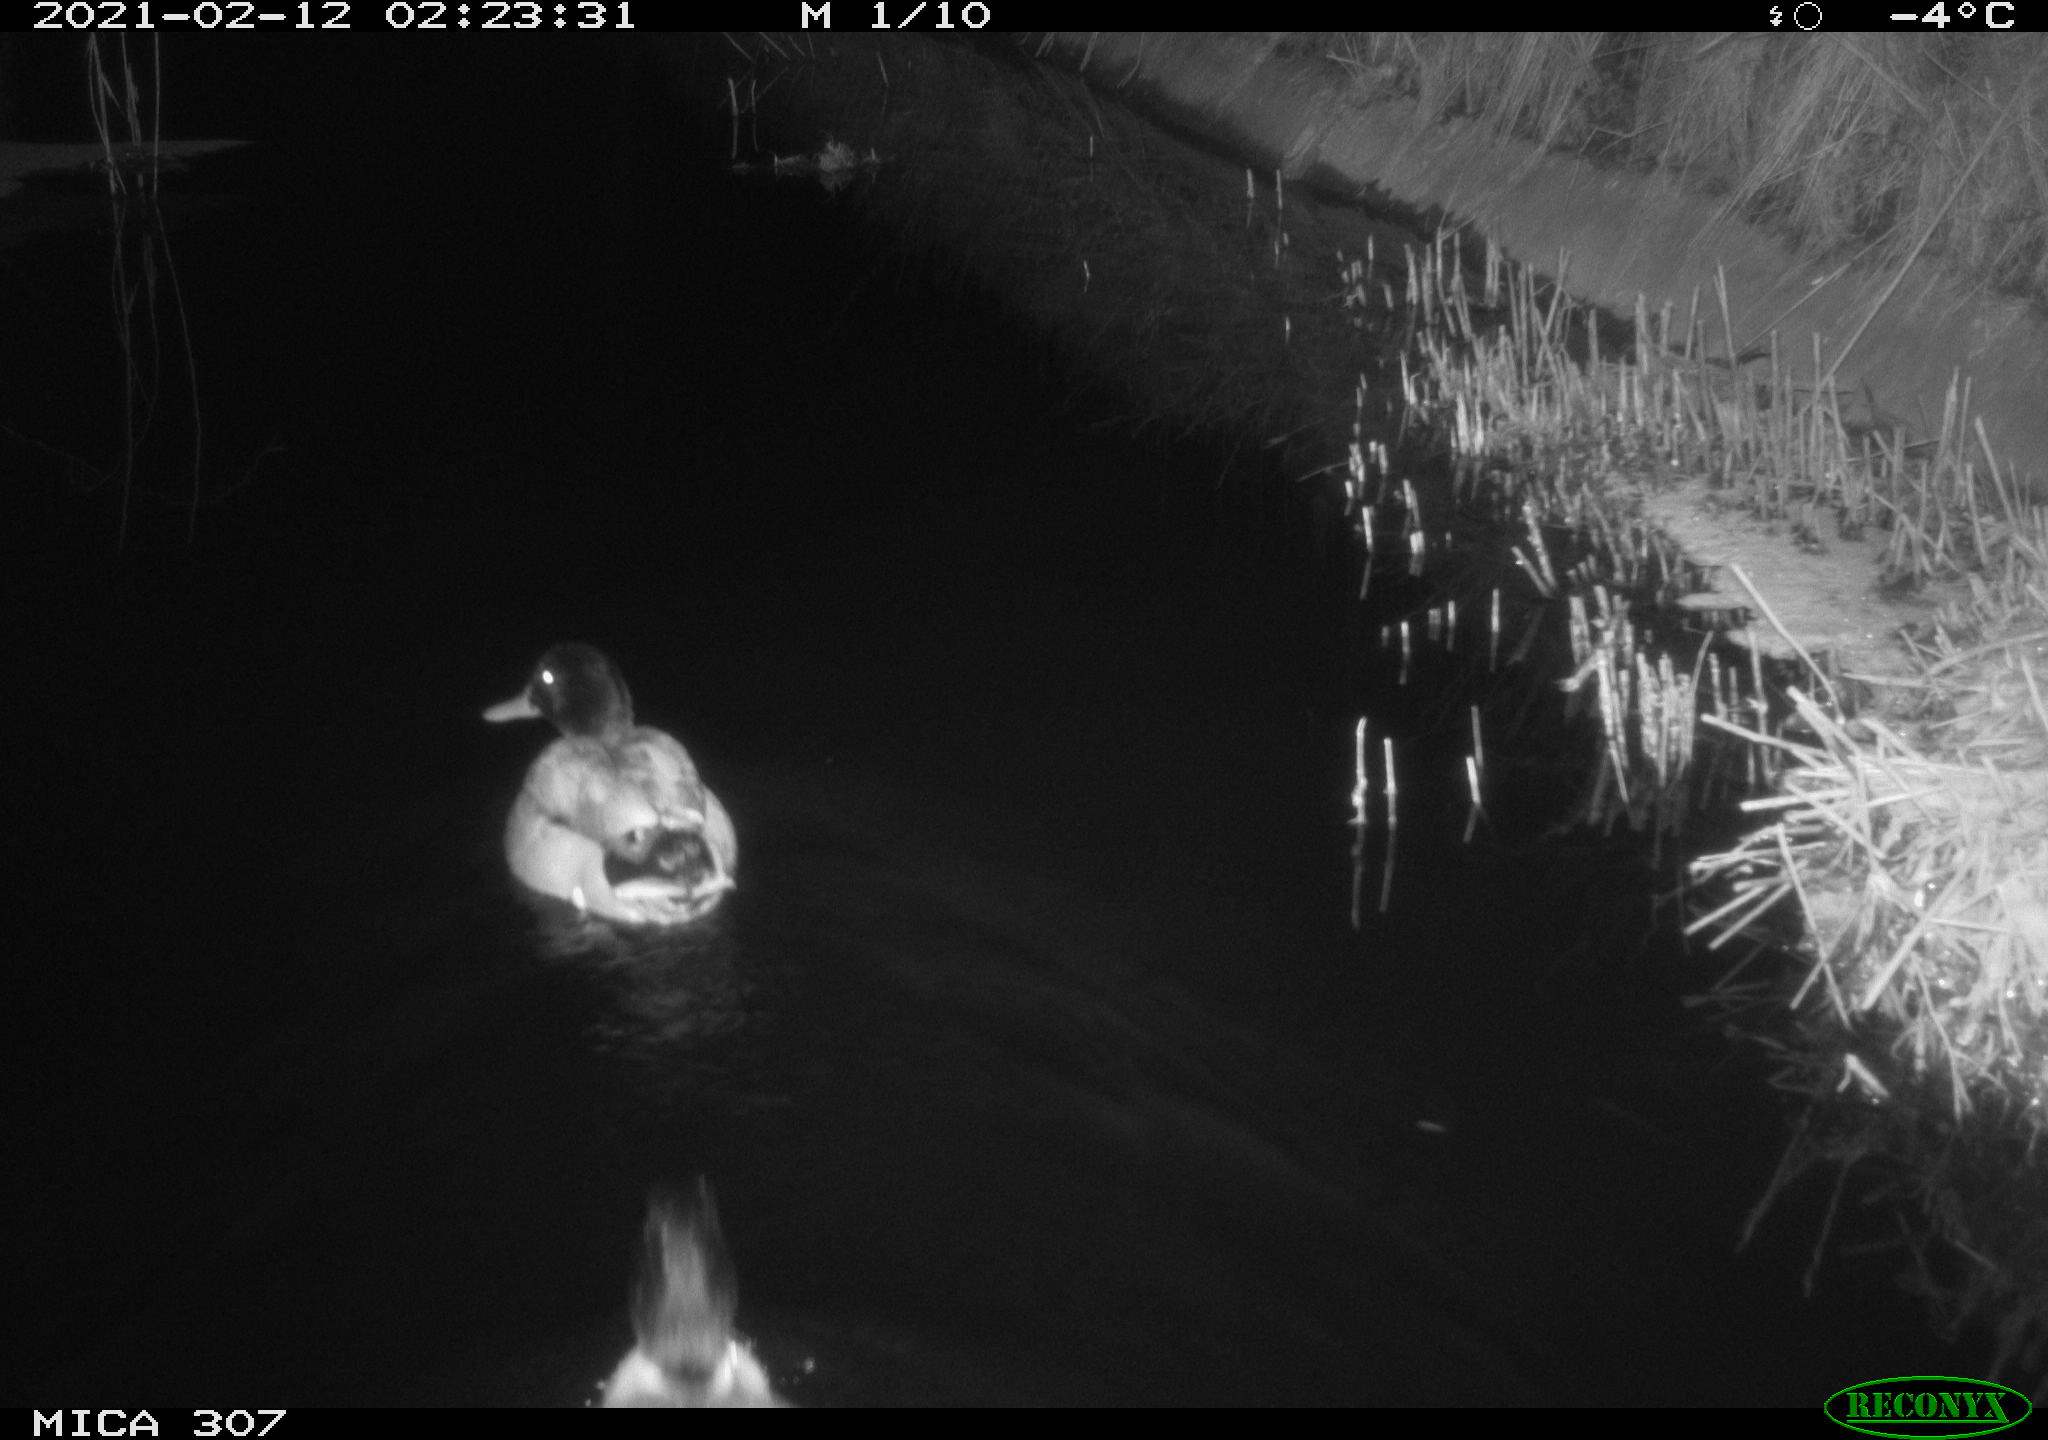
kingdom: Animalia
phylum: Chordata
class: Aves
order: Anseriformes
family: Anatidae
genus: Anas
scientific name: Anas platyrhynchos
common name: Mallard
